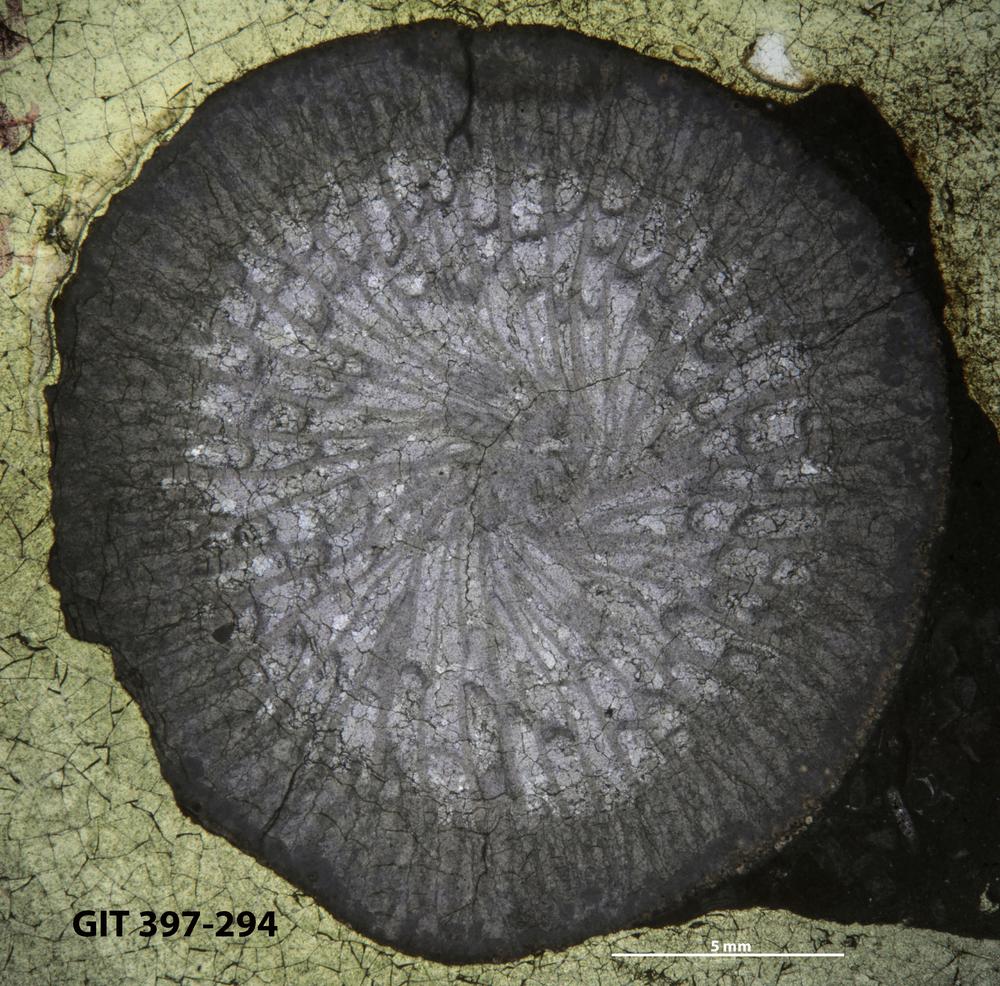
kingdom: Animalia
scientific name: Animalia
